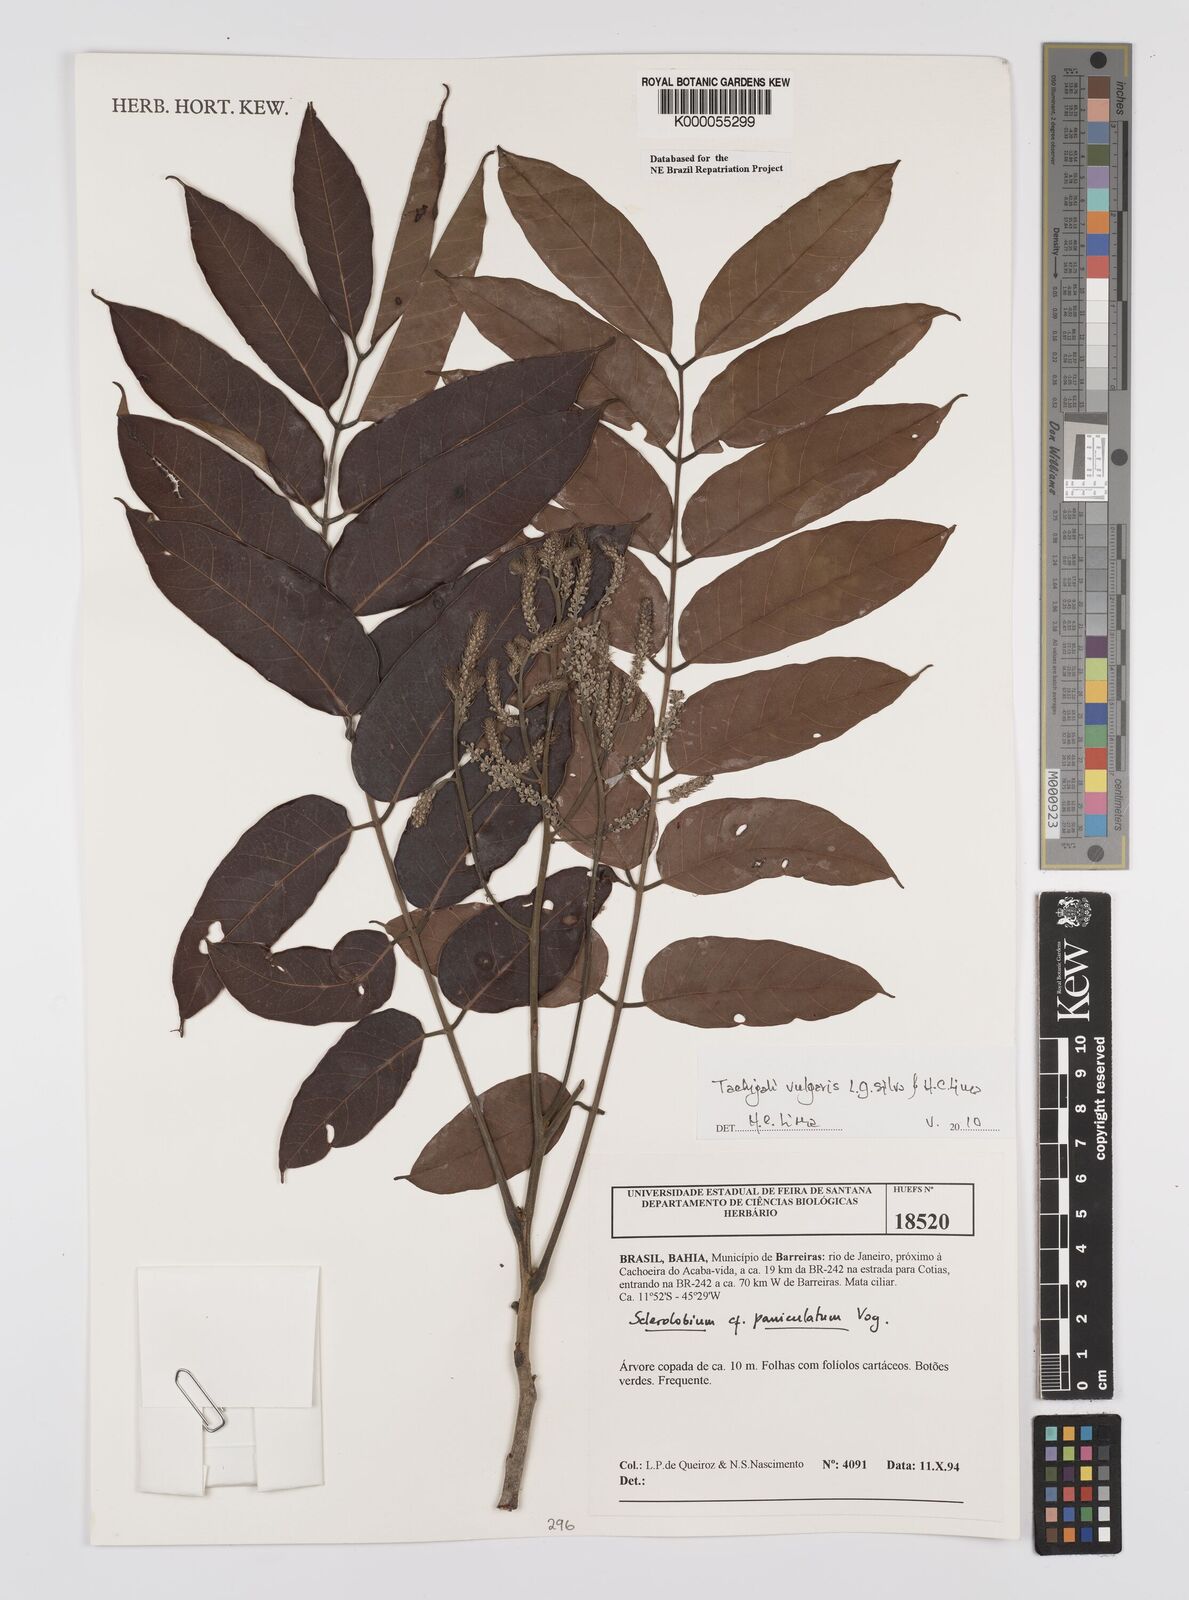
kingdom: Plantae
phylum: Tracheophyta
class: Magnoliopsida
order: Fabales
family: Fabaceae
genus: Tachigali
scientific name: Tachigali vulgaris
